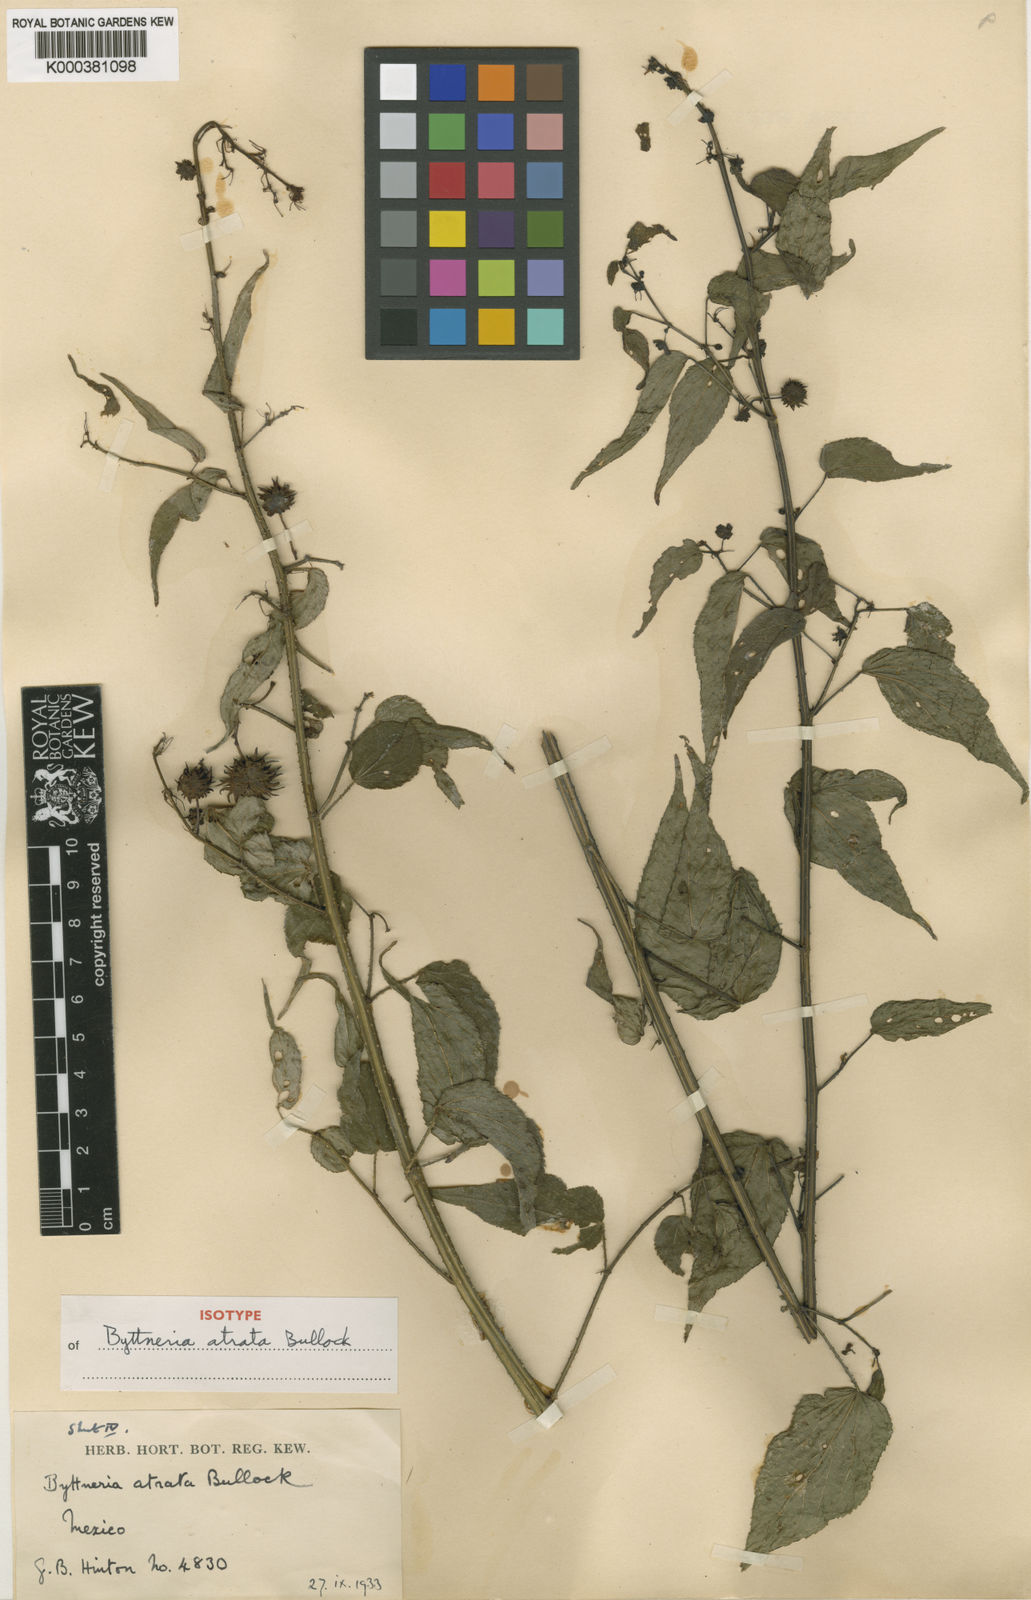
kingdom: Plantae
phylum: Tracheophyta
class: Magnoliopsida
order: Malvales
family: Malvaceae
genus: Byttneria
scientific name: Byttneria atrata
